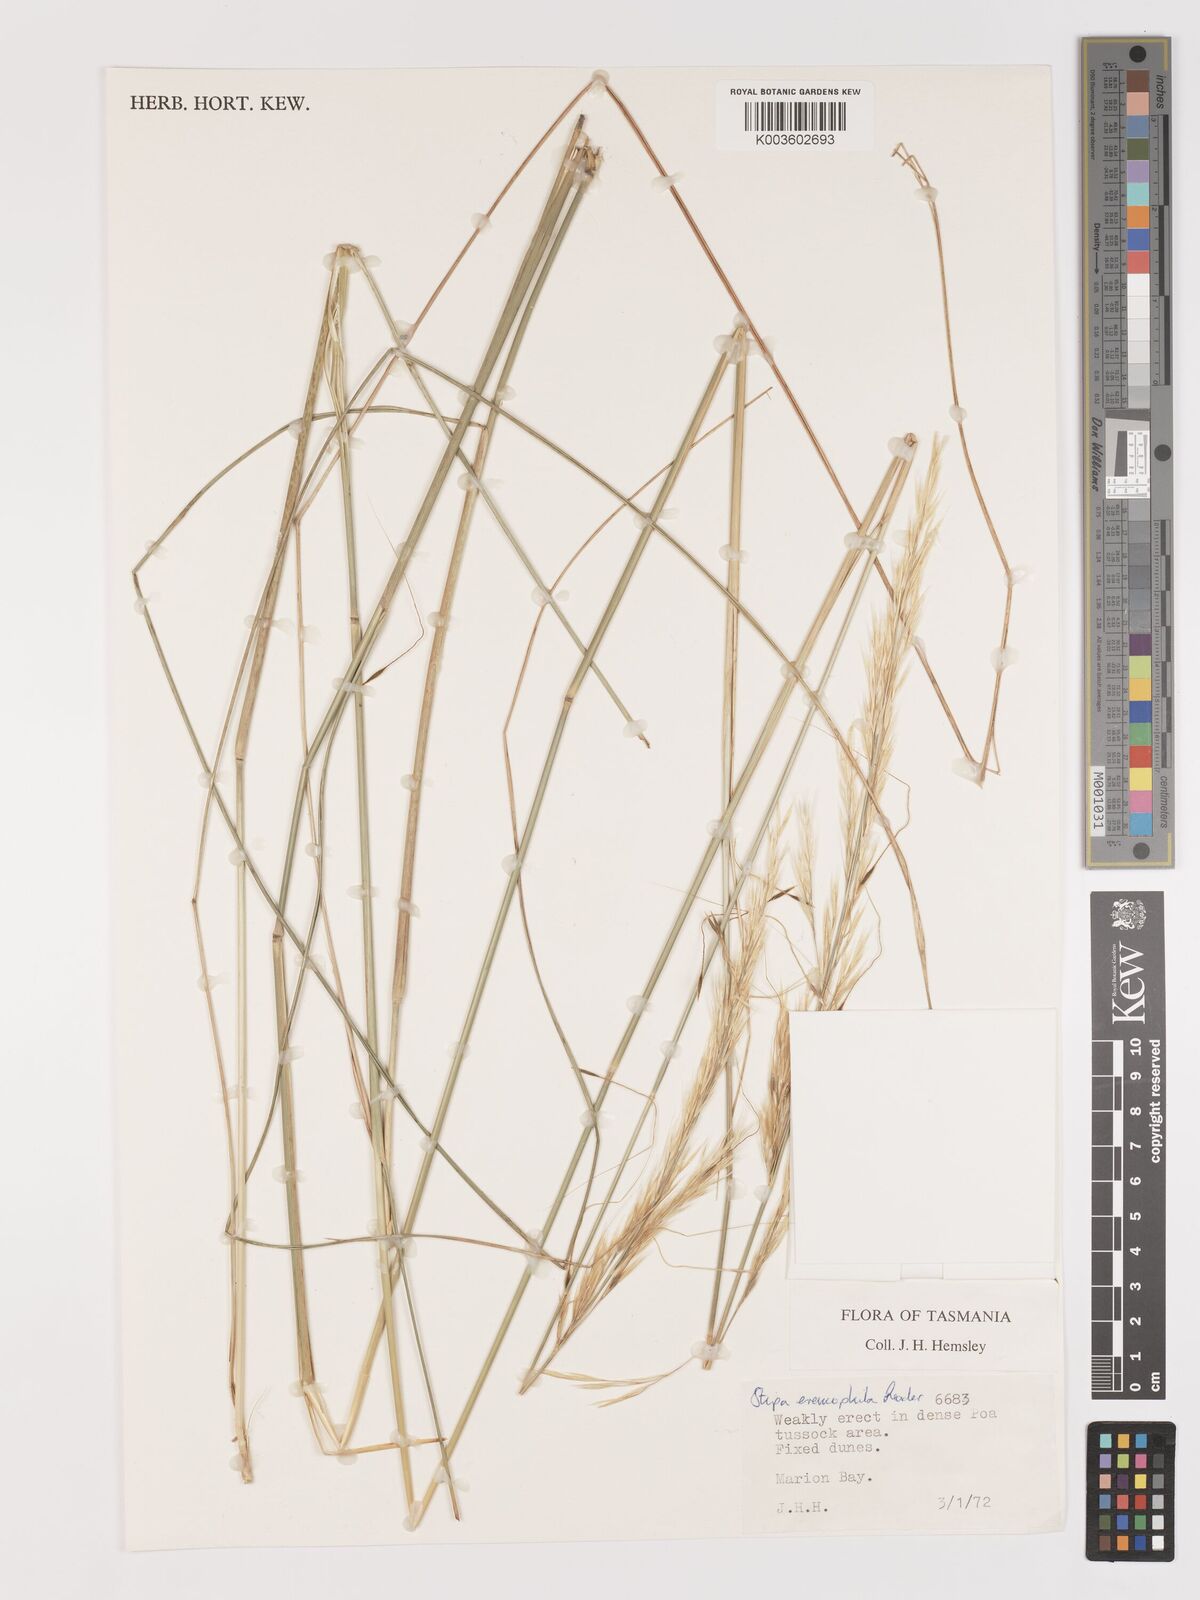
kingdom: Plantae
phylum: Tracheophyta
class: Liliopsida
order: Poales
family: Poaceae
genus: Austrostipa
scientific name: Austrostipa eremophila
